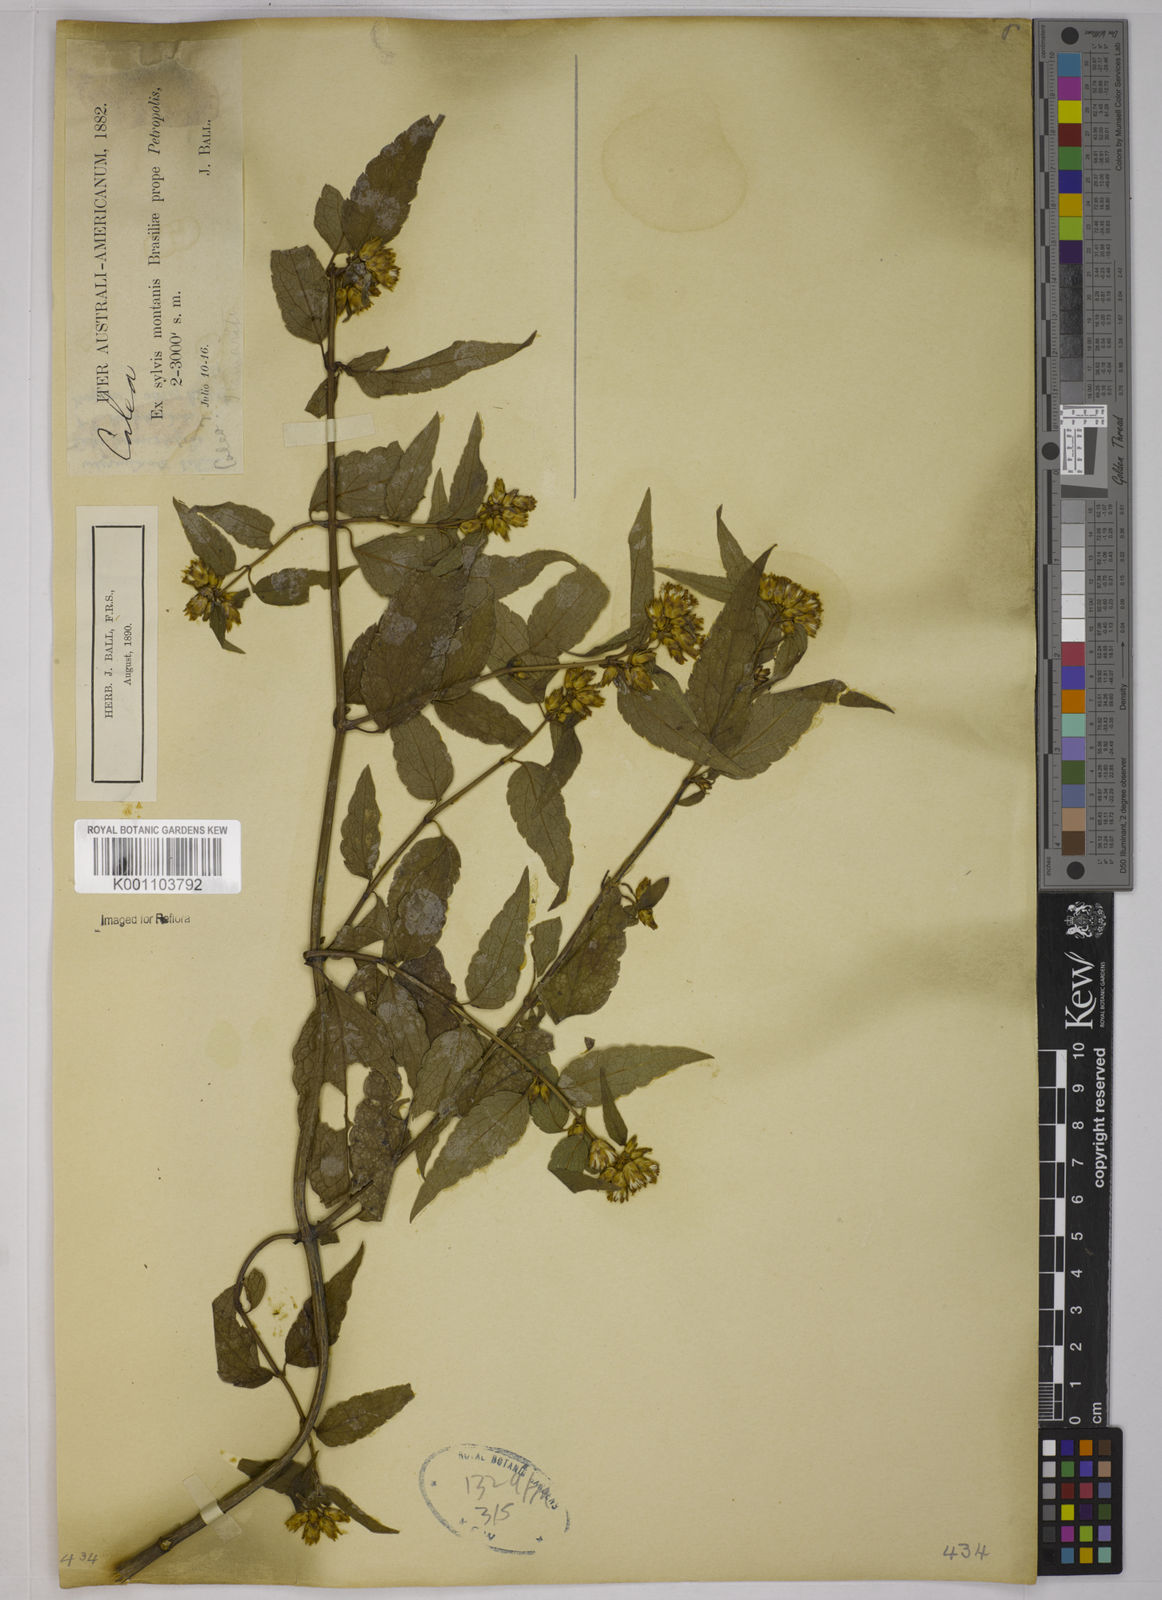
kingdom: Plantae
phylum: Tracheophyta
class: Magnoliopsida
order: Asterales
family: Asteraceae
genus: Calea
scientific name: Calea
